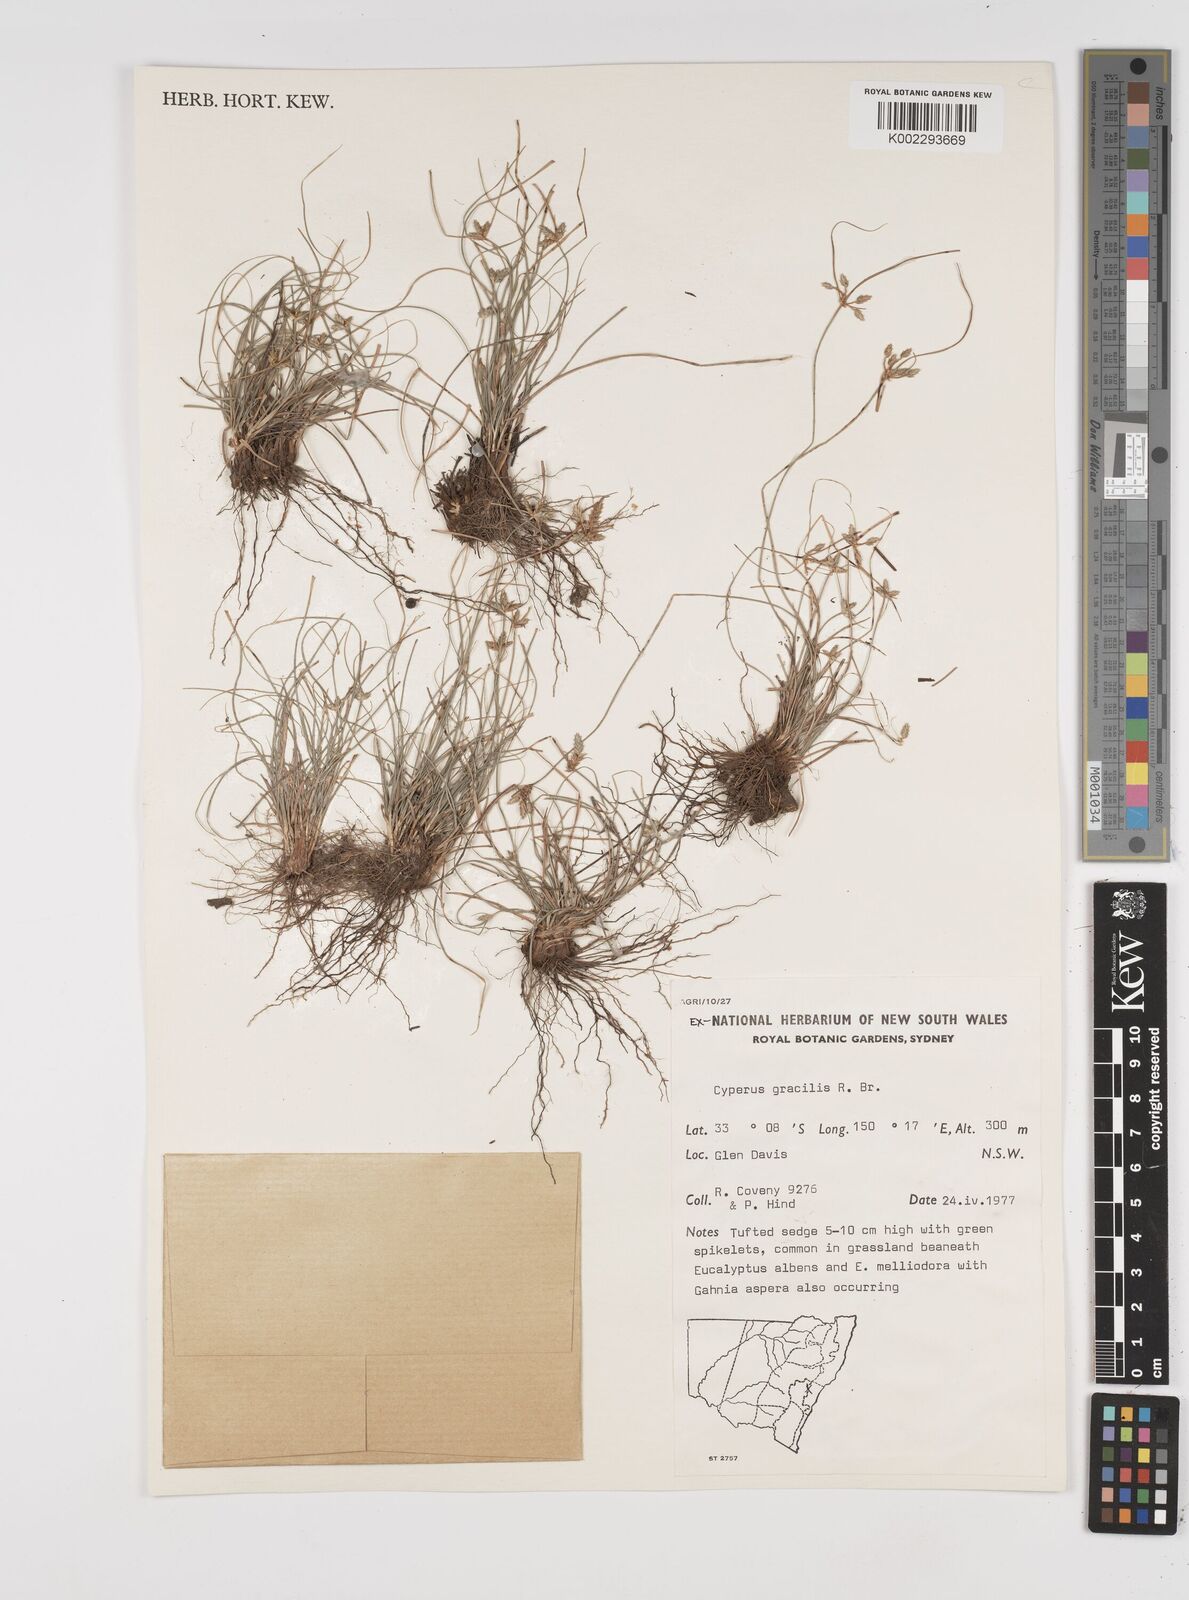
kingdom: Plantae
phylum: Tracheophyta
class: Liliopsida
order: Poales
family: Cyperaceae
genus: Cyperus
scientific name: Cyperus gracilis
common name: Slimjim flatsedge
